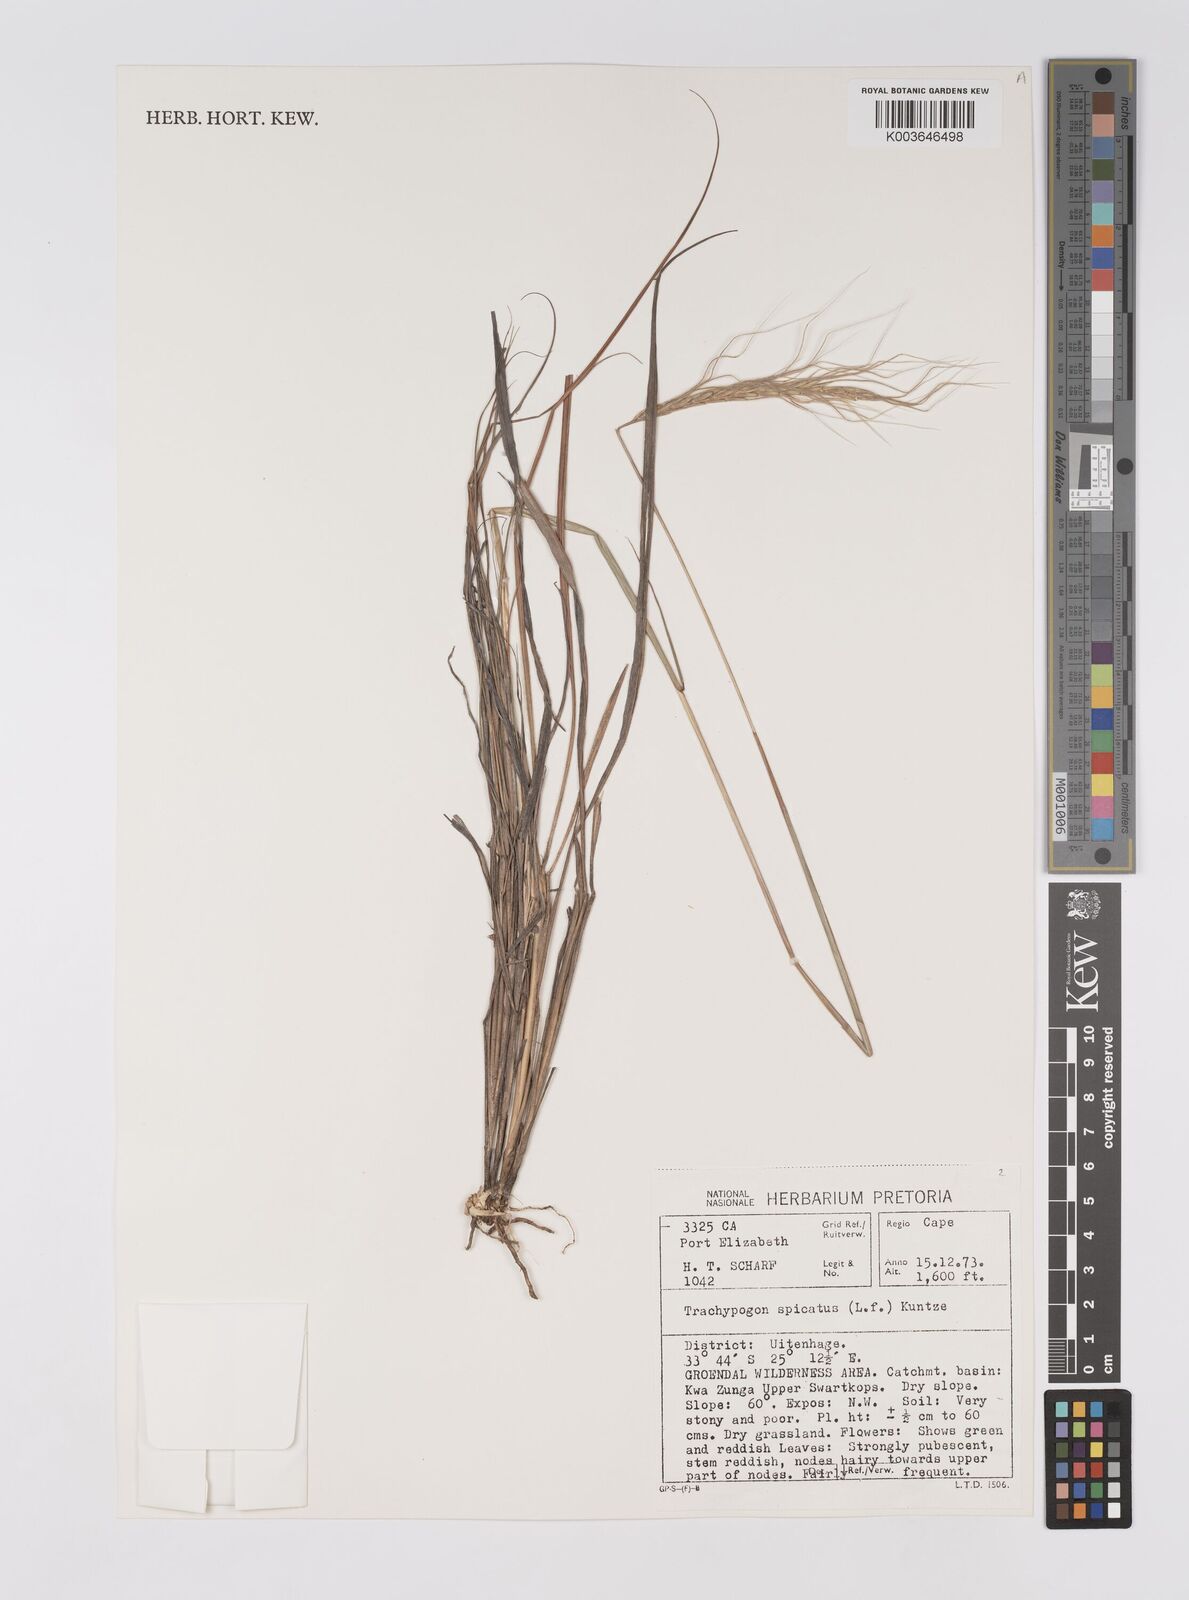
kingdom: Plantae
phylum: Tracheophyta
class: Liliopsida
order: Poales
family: Poaceae
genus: Trachypogon
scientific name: Trachypogon spicatus
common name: Crinkle-awn
